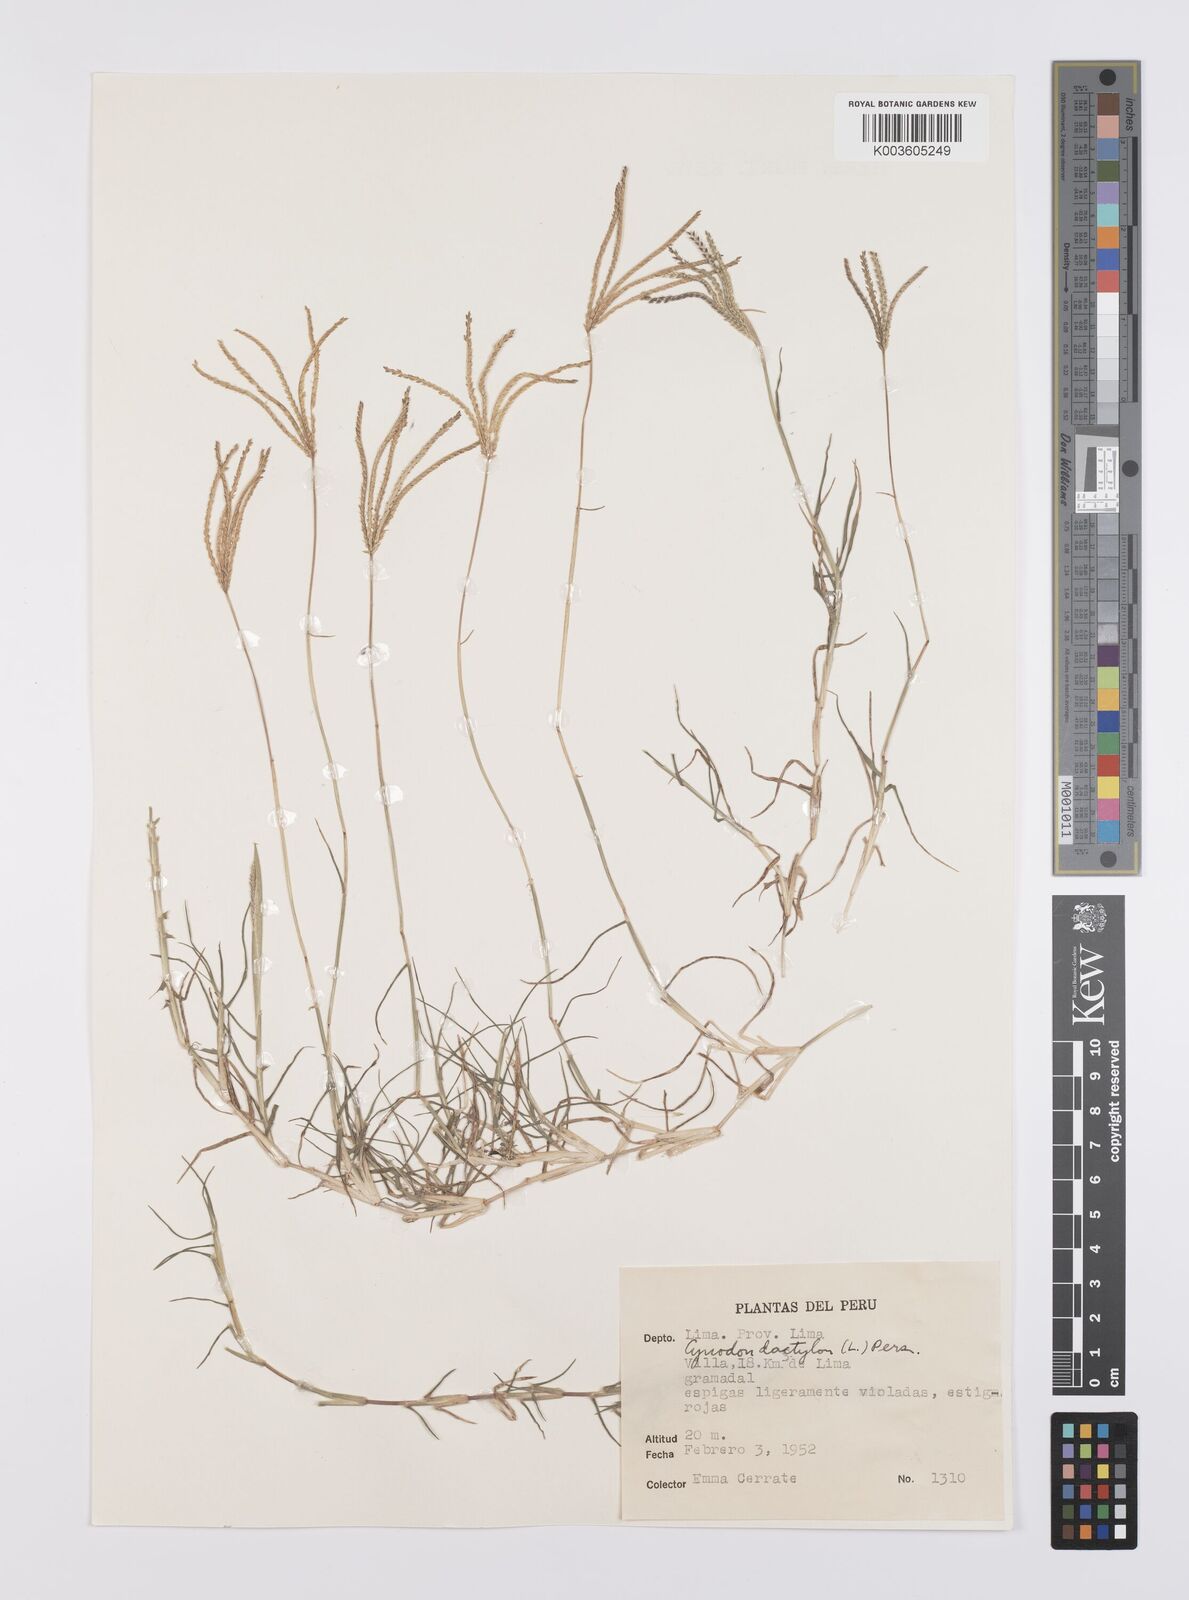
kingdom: Plantae
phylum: Tracheophyta
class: Liliopsida
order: Poales
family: Poaceae
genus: Cynodon
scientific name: Cynodon dactylon
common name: Bermuda grass
